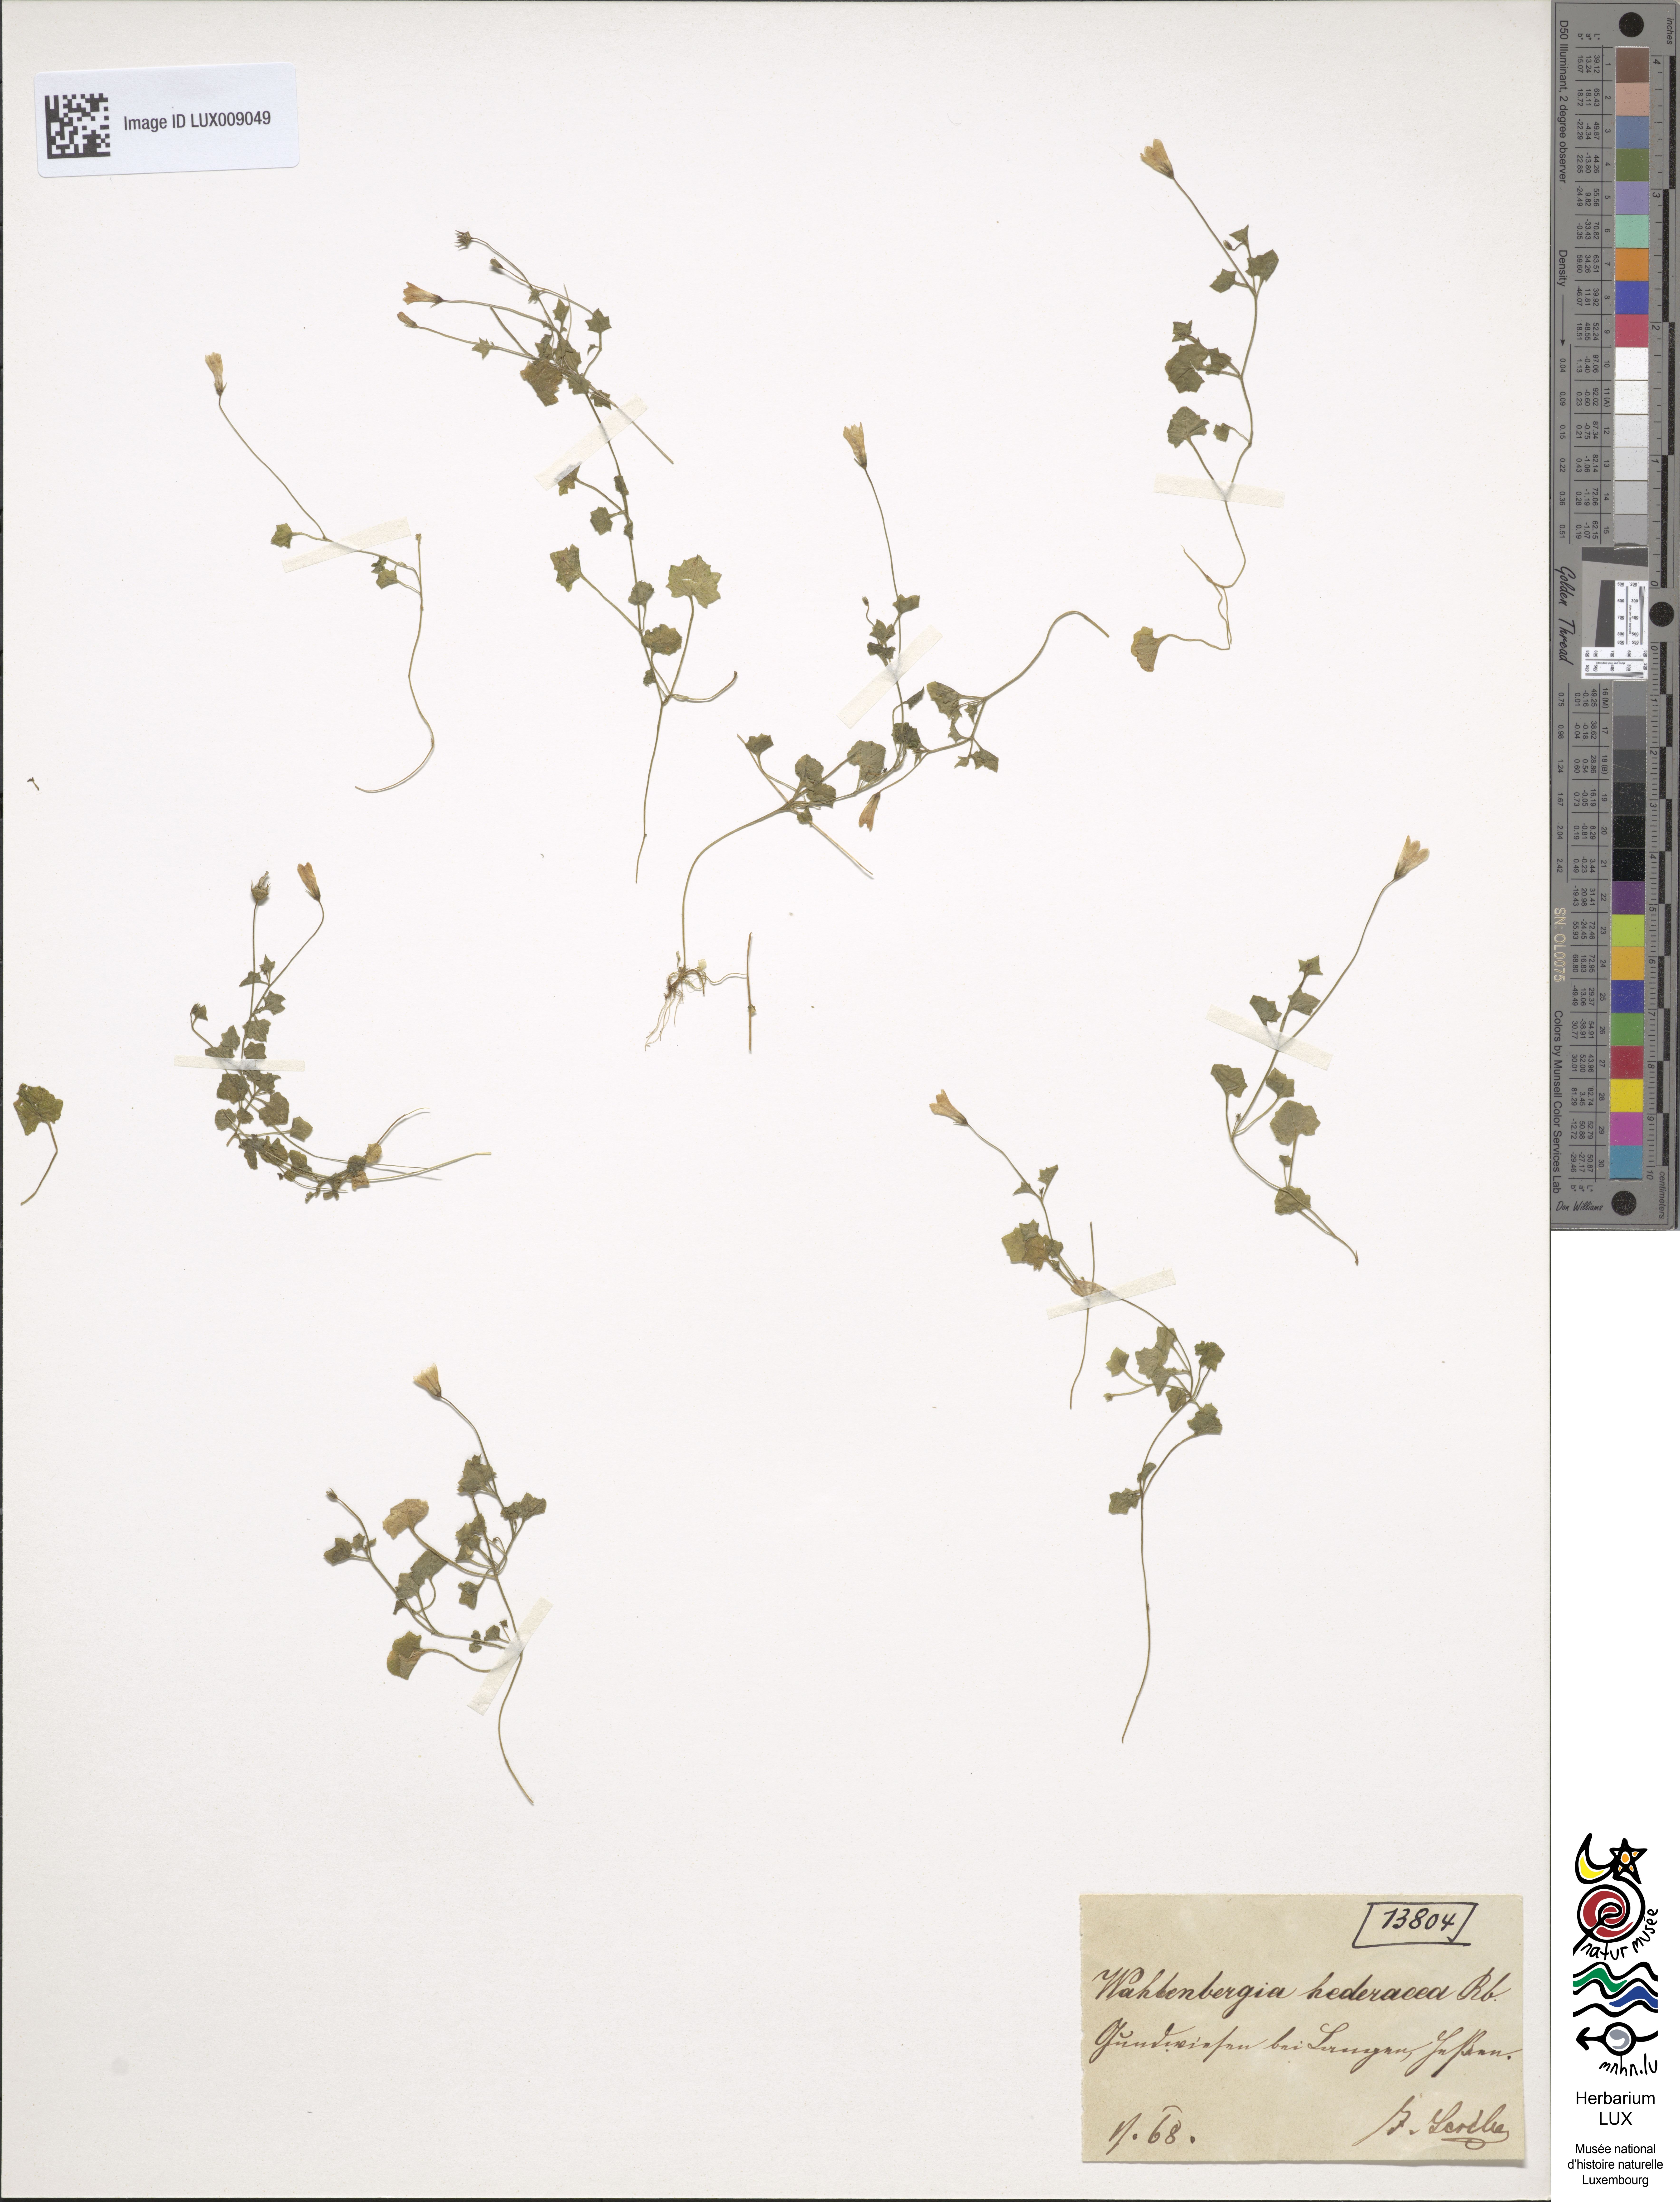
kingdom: Plantae
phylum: Tracheophyta
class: Magnoliopsida
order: Asterales
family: Campanulaceae
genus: Hesperocodon
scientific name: Hesperocodon hederaceus
